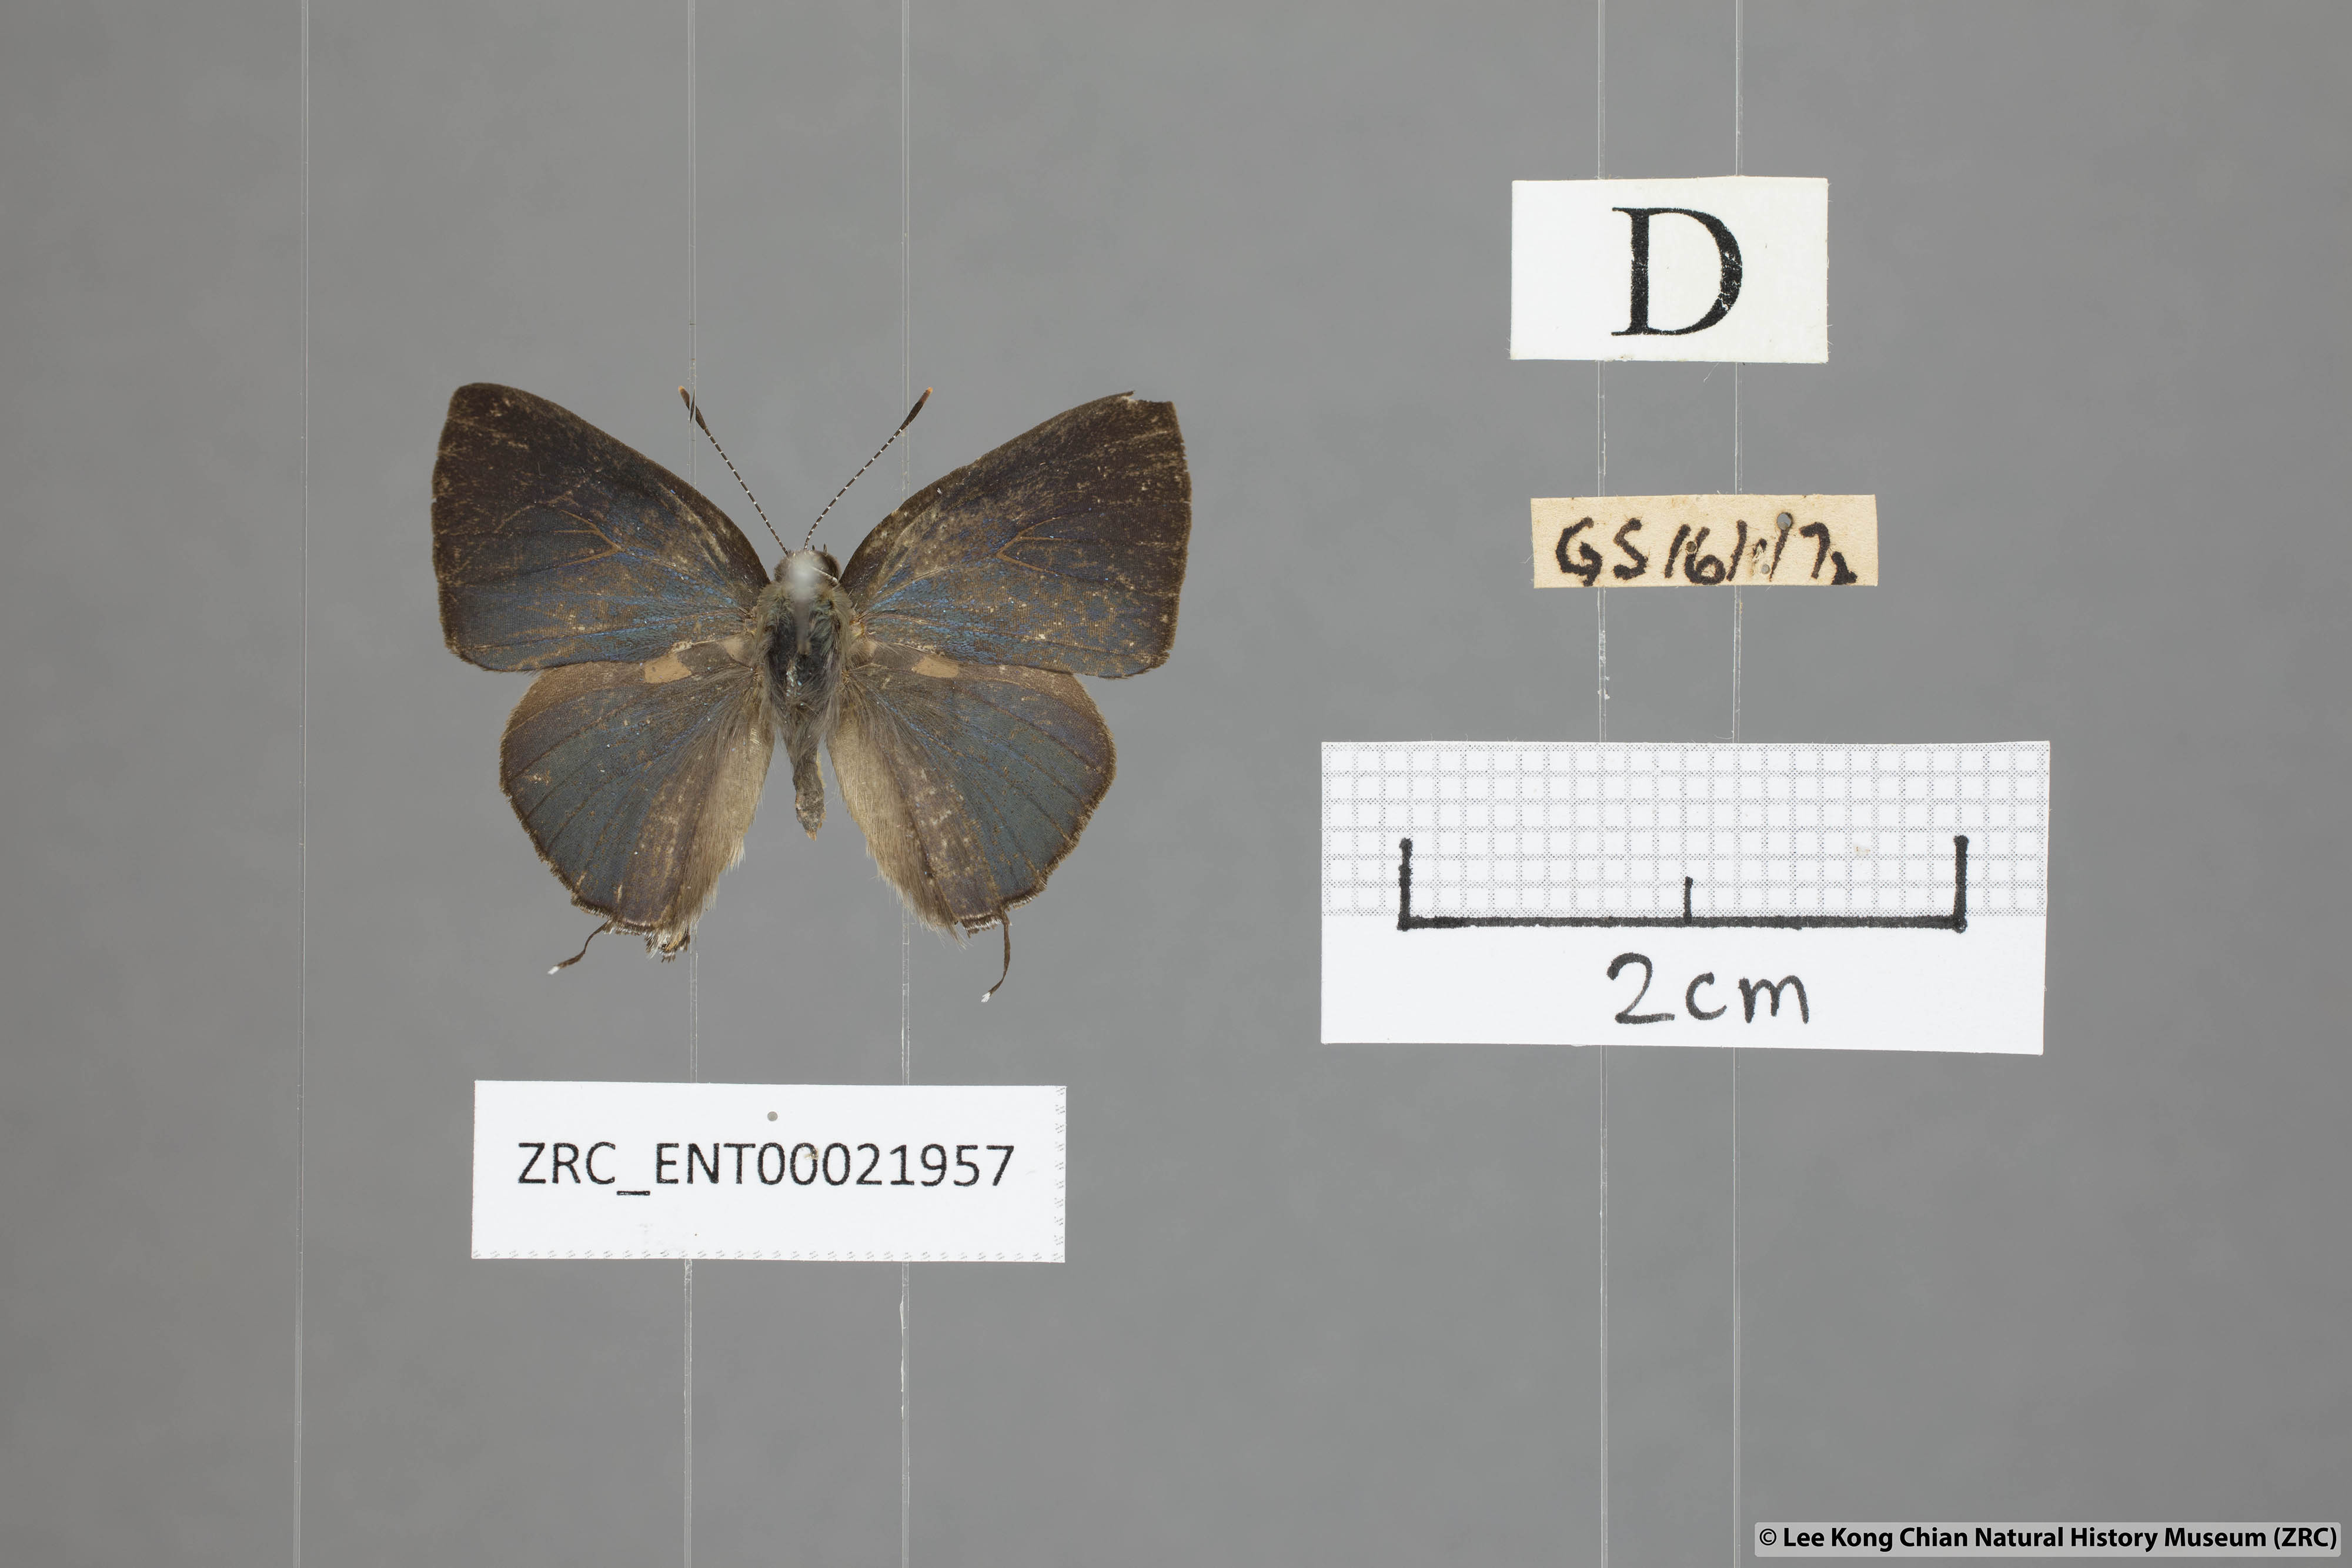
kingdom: Animalia
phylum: Arthropoda
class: Insecta
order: Lepidoptera
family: Lycaenidae
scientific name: Lycaenidae
